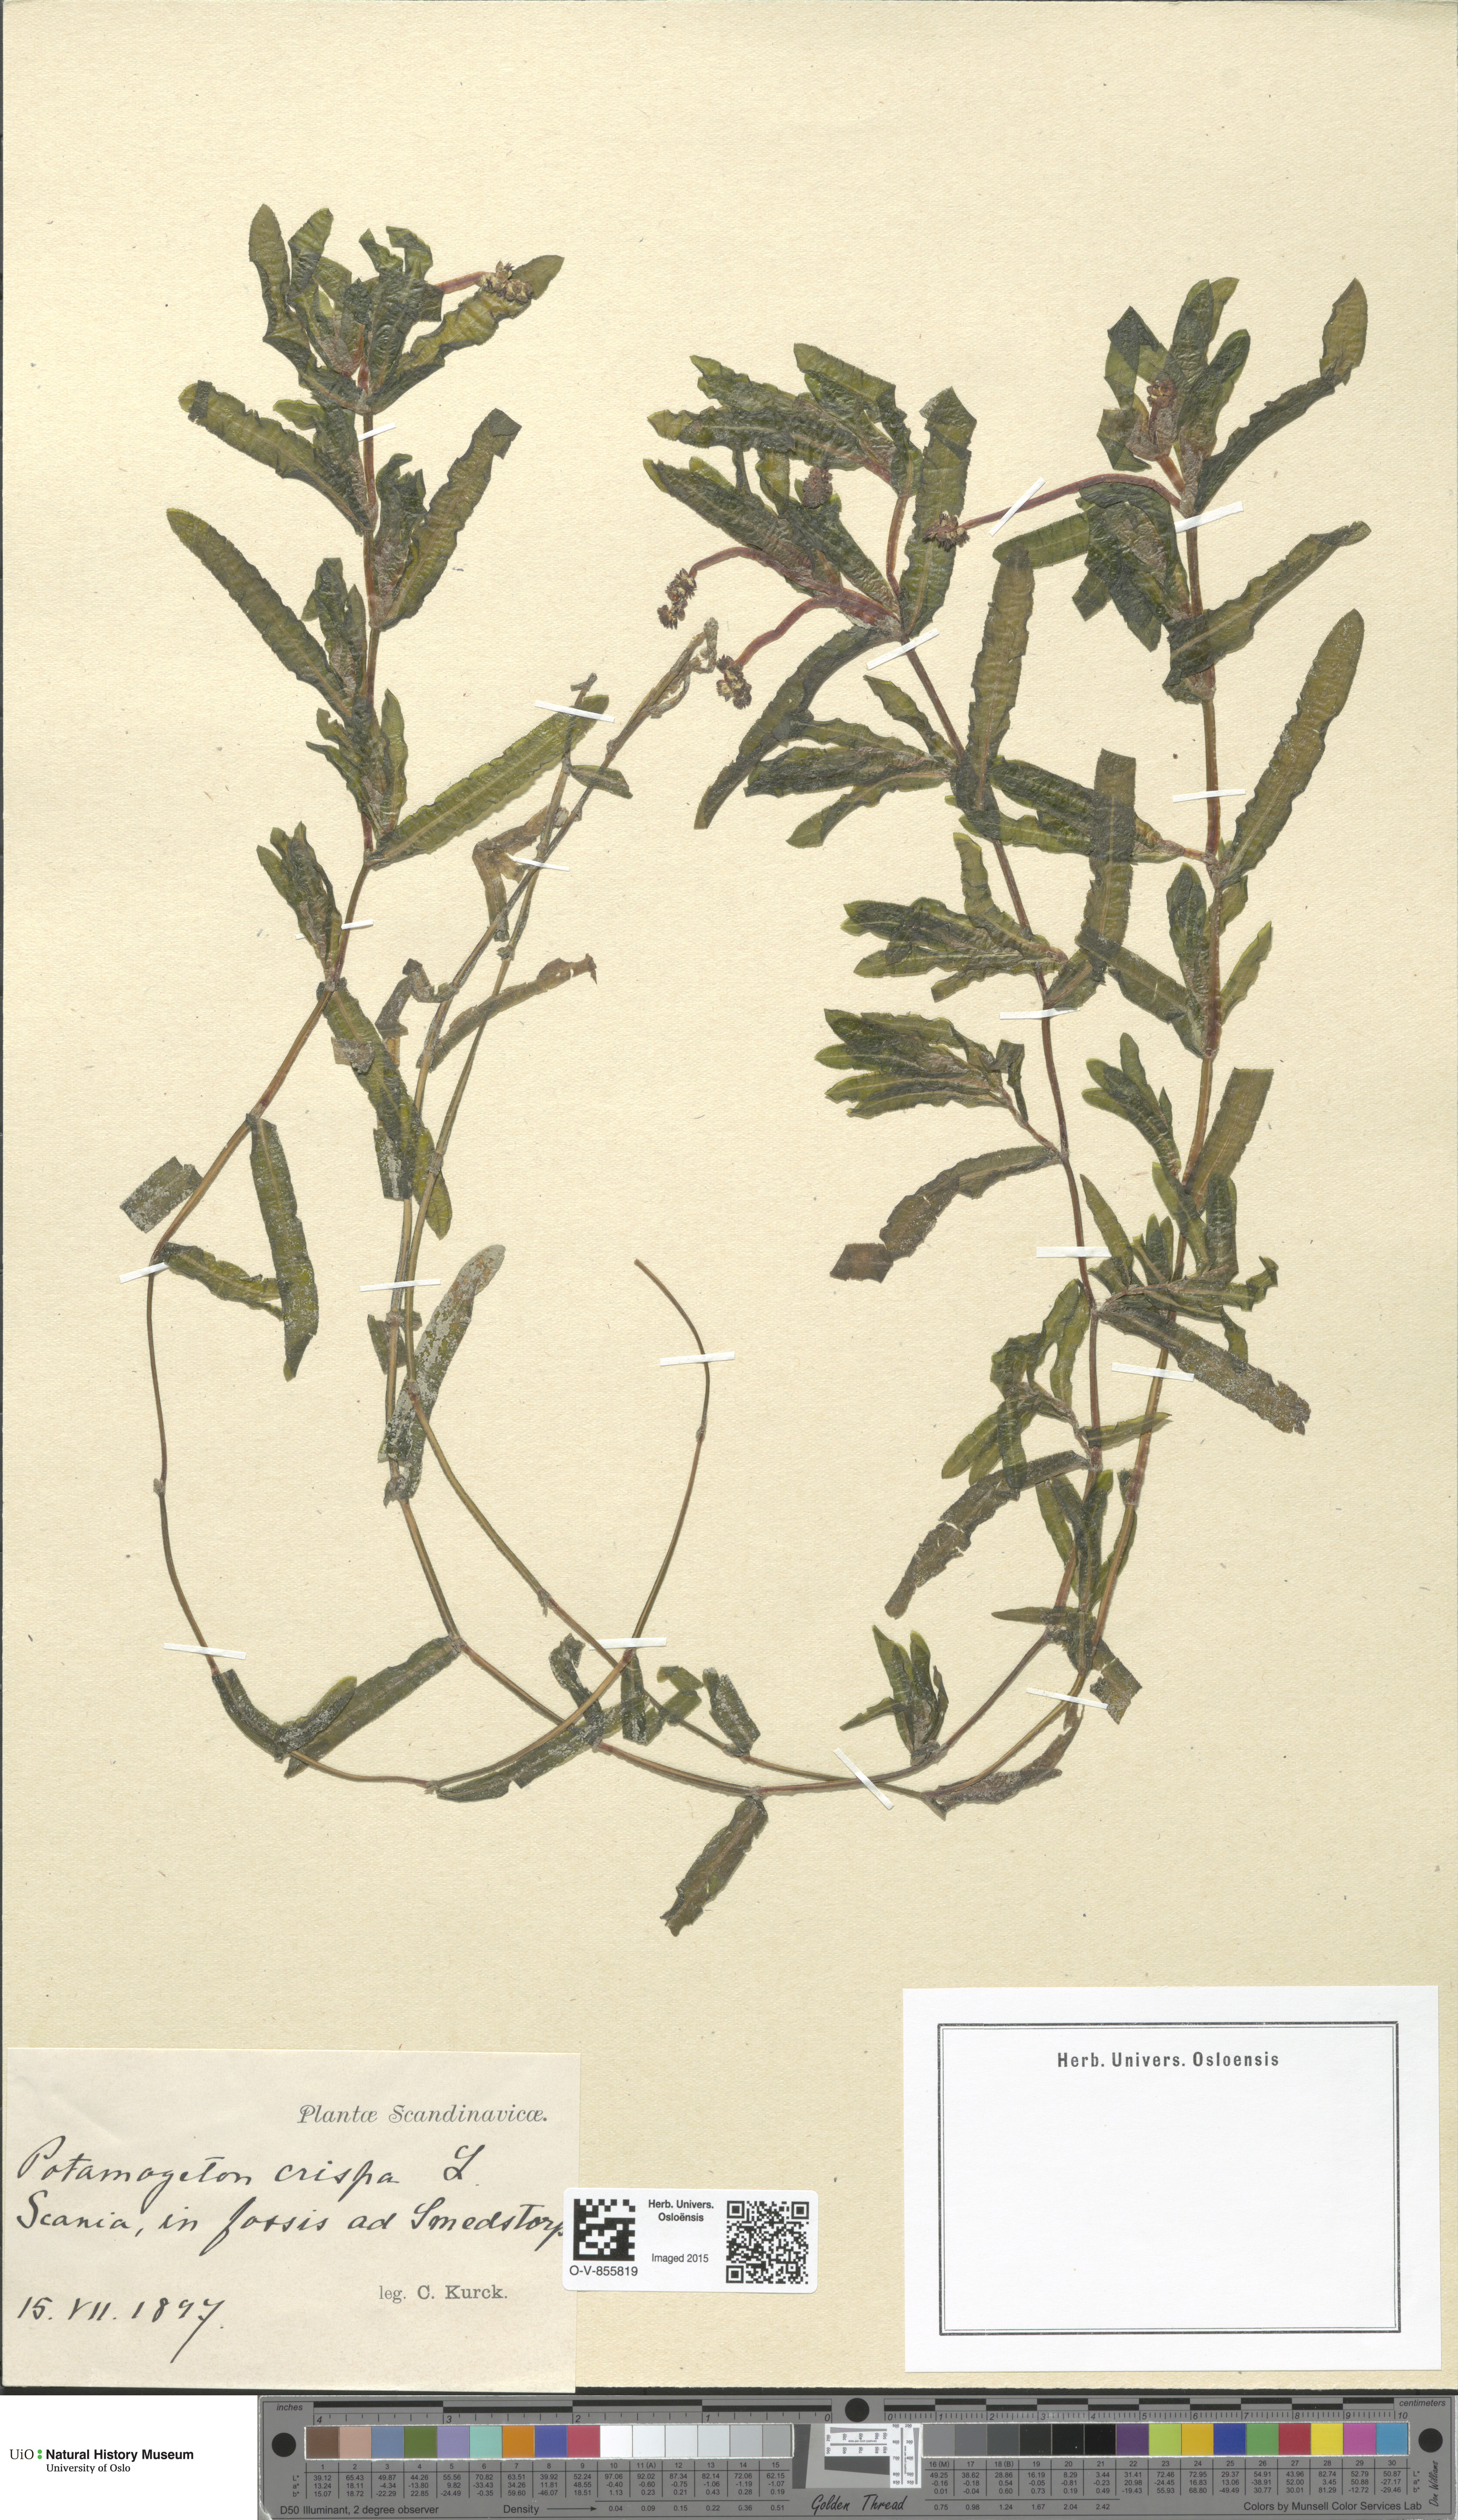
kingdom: Plantae
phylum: Tracheophyta
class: Liliopsida
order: Alismatales
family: Potamogetonaceae
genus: Potamogeton
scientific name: Potamogeton crispus
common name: Curled pondweed
